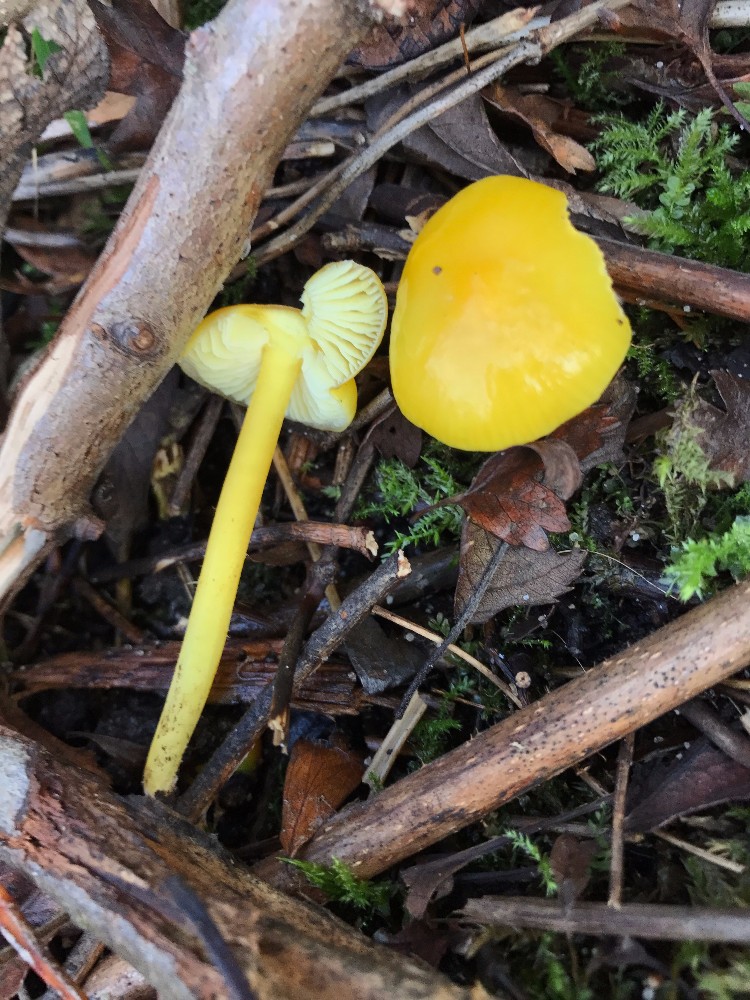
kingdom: Fungi
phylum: Basidiomycota
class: Agaricomycetes
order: Agaricales
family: Hygrophoraceae
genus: Hygrocybe
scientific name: Hygrocybe chlorophana
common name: gul vokshat
